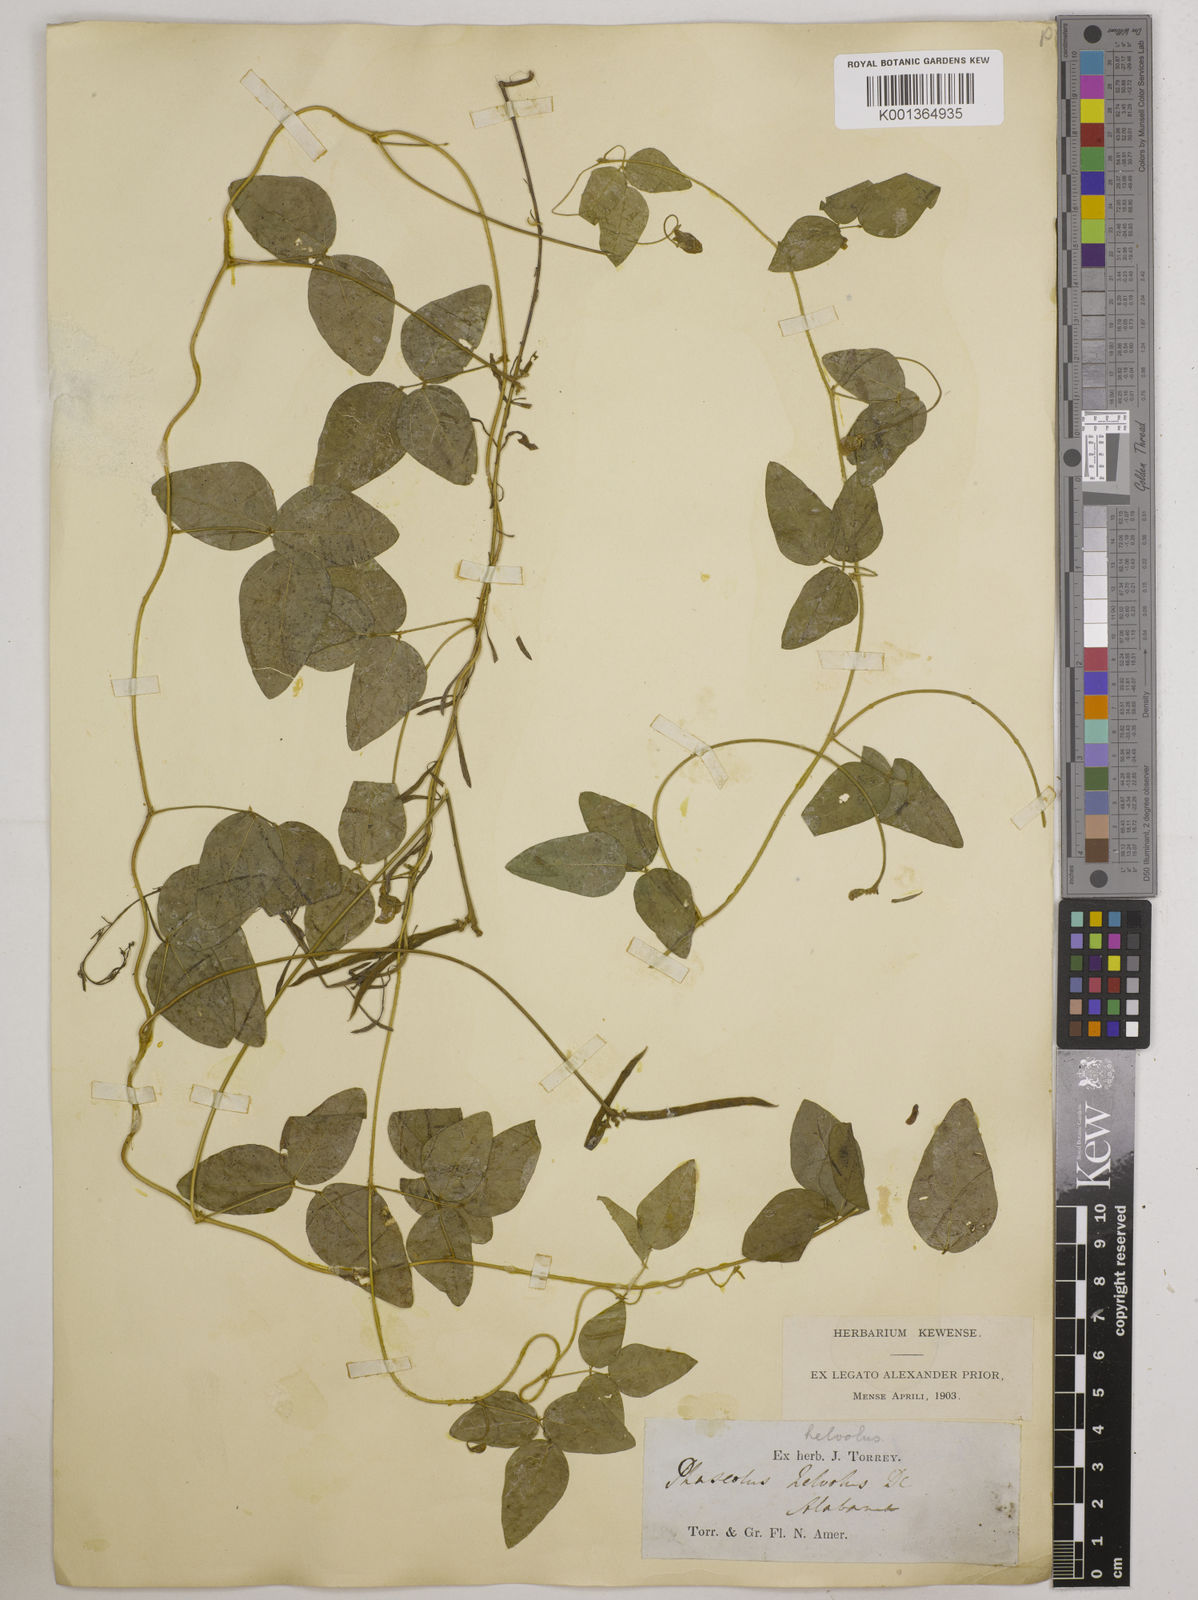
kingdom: Plantae
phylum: Tracheophyta
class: Magnoliopsida
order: Fabales
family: Fabaceae
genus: Strophostyles
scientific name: Strophostyles
